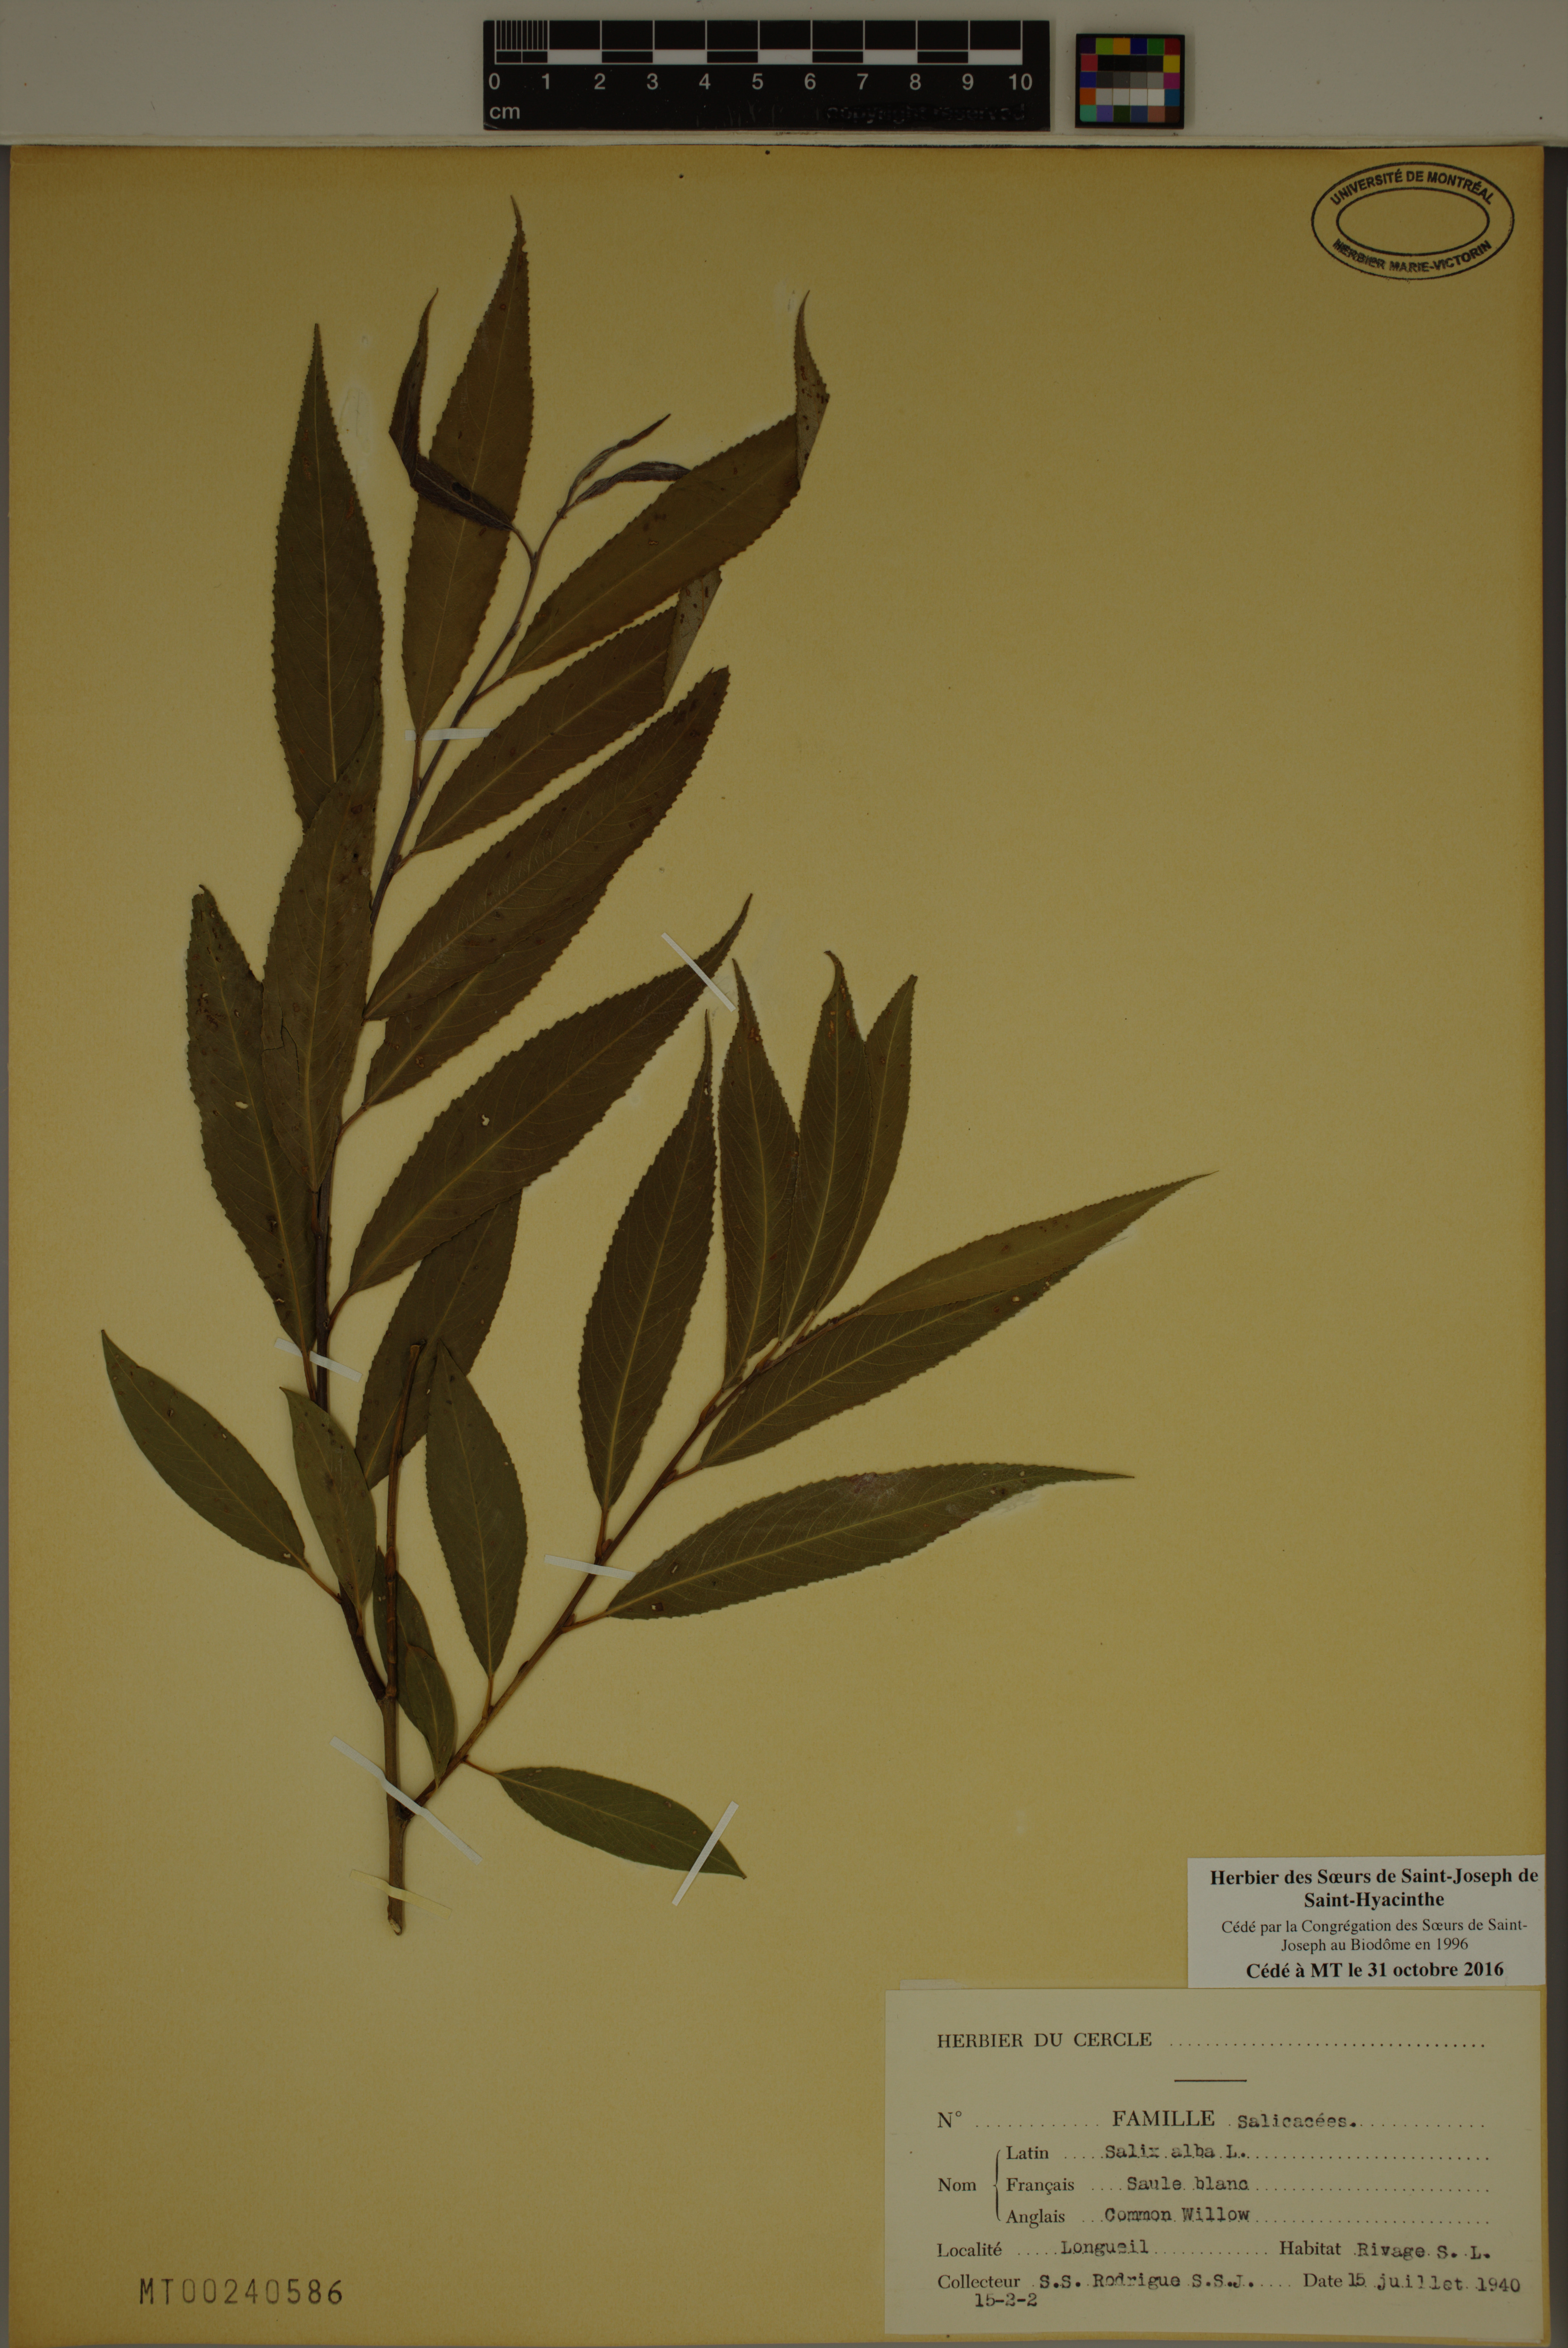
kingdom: Plantae
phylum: Tracheophyta
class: Magnoliopsida
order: Malpighiales
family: Salicaceae
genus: Salix
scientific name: Salix alba
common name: White willow
